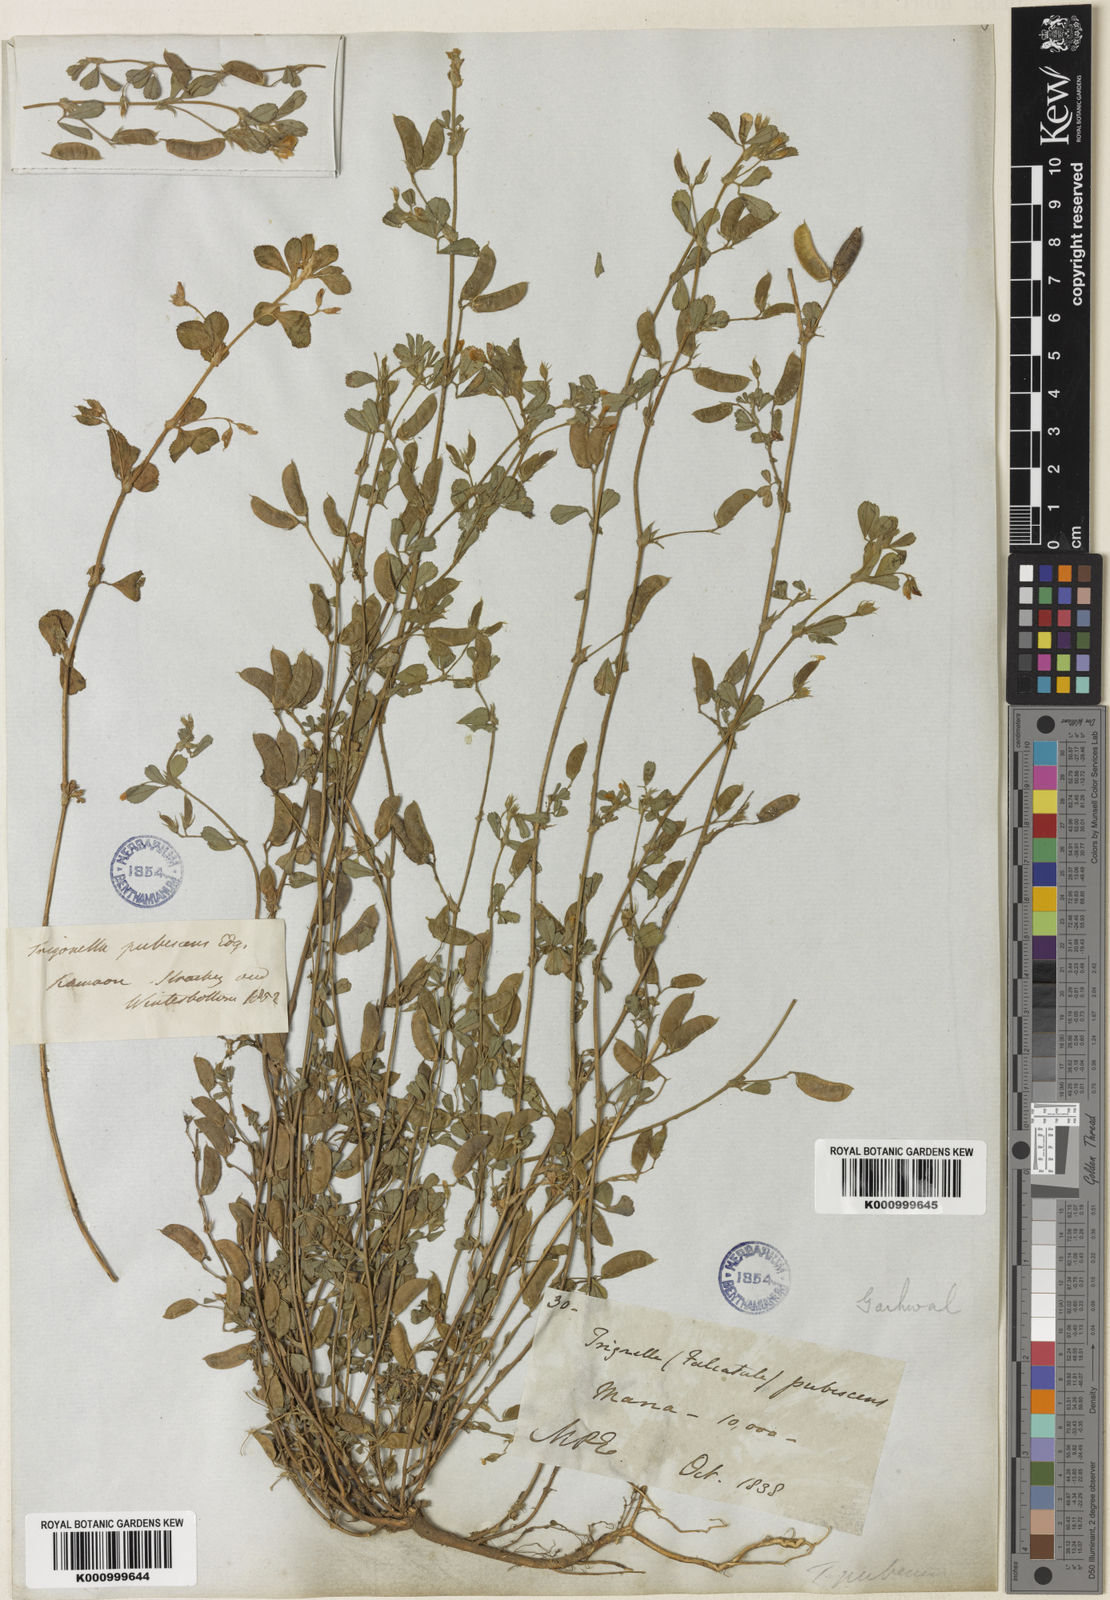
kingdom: Plantae
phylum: Tracheophyta
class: Magnoliopsida
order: Fabales
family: Fabaceae
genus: Medicago
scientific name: Medicago
